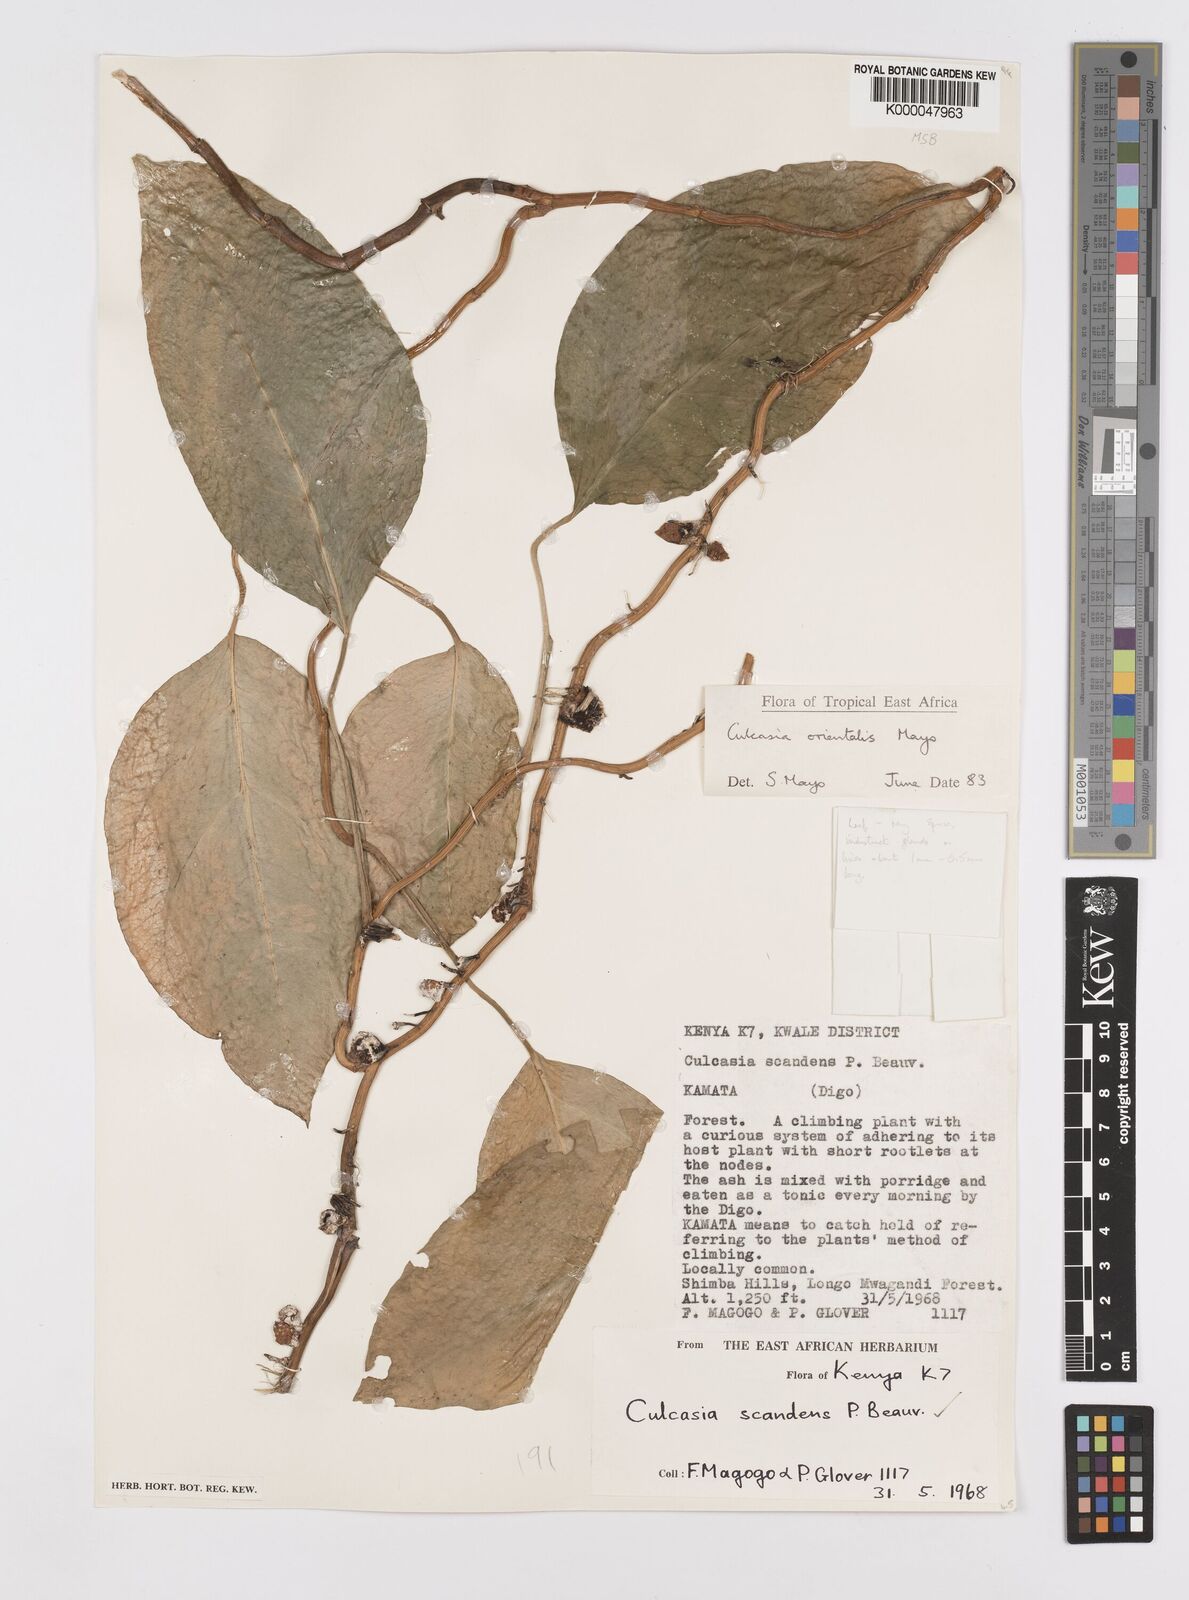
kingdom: Plantae
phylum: Tracheophyta
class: Liliopsida
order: Alismatales
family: Araceae
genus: Culcasia
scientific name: Culcasia orientalis
